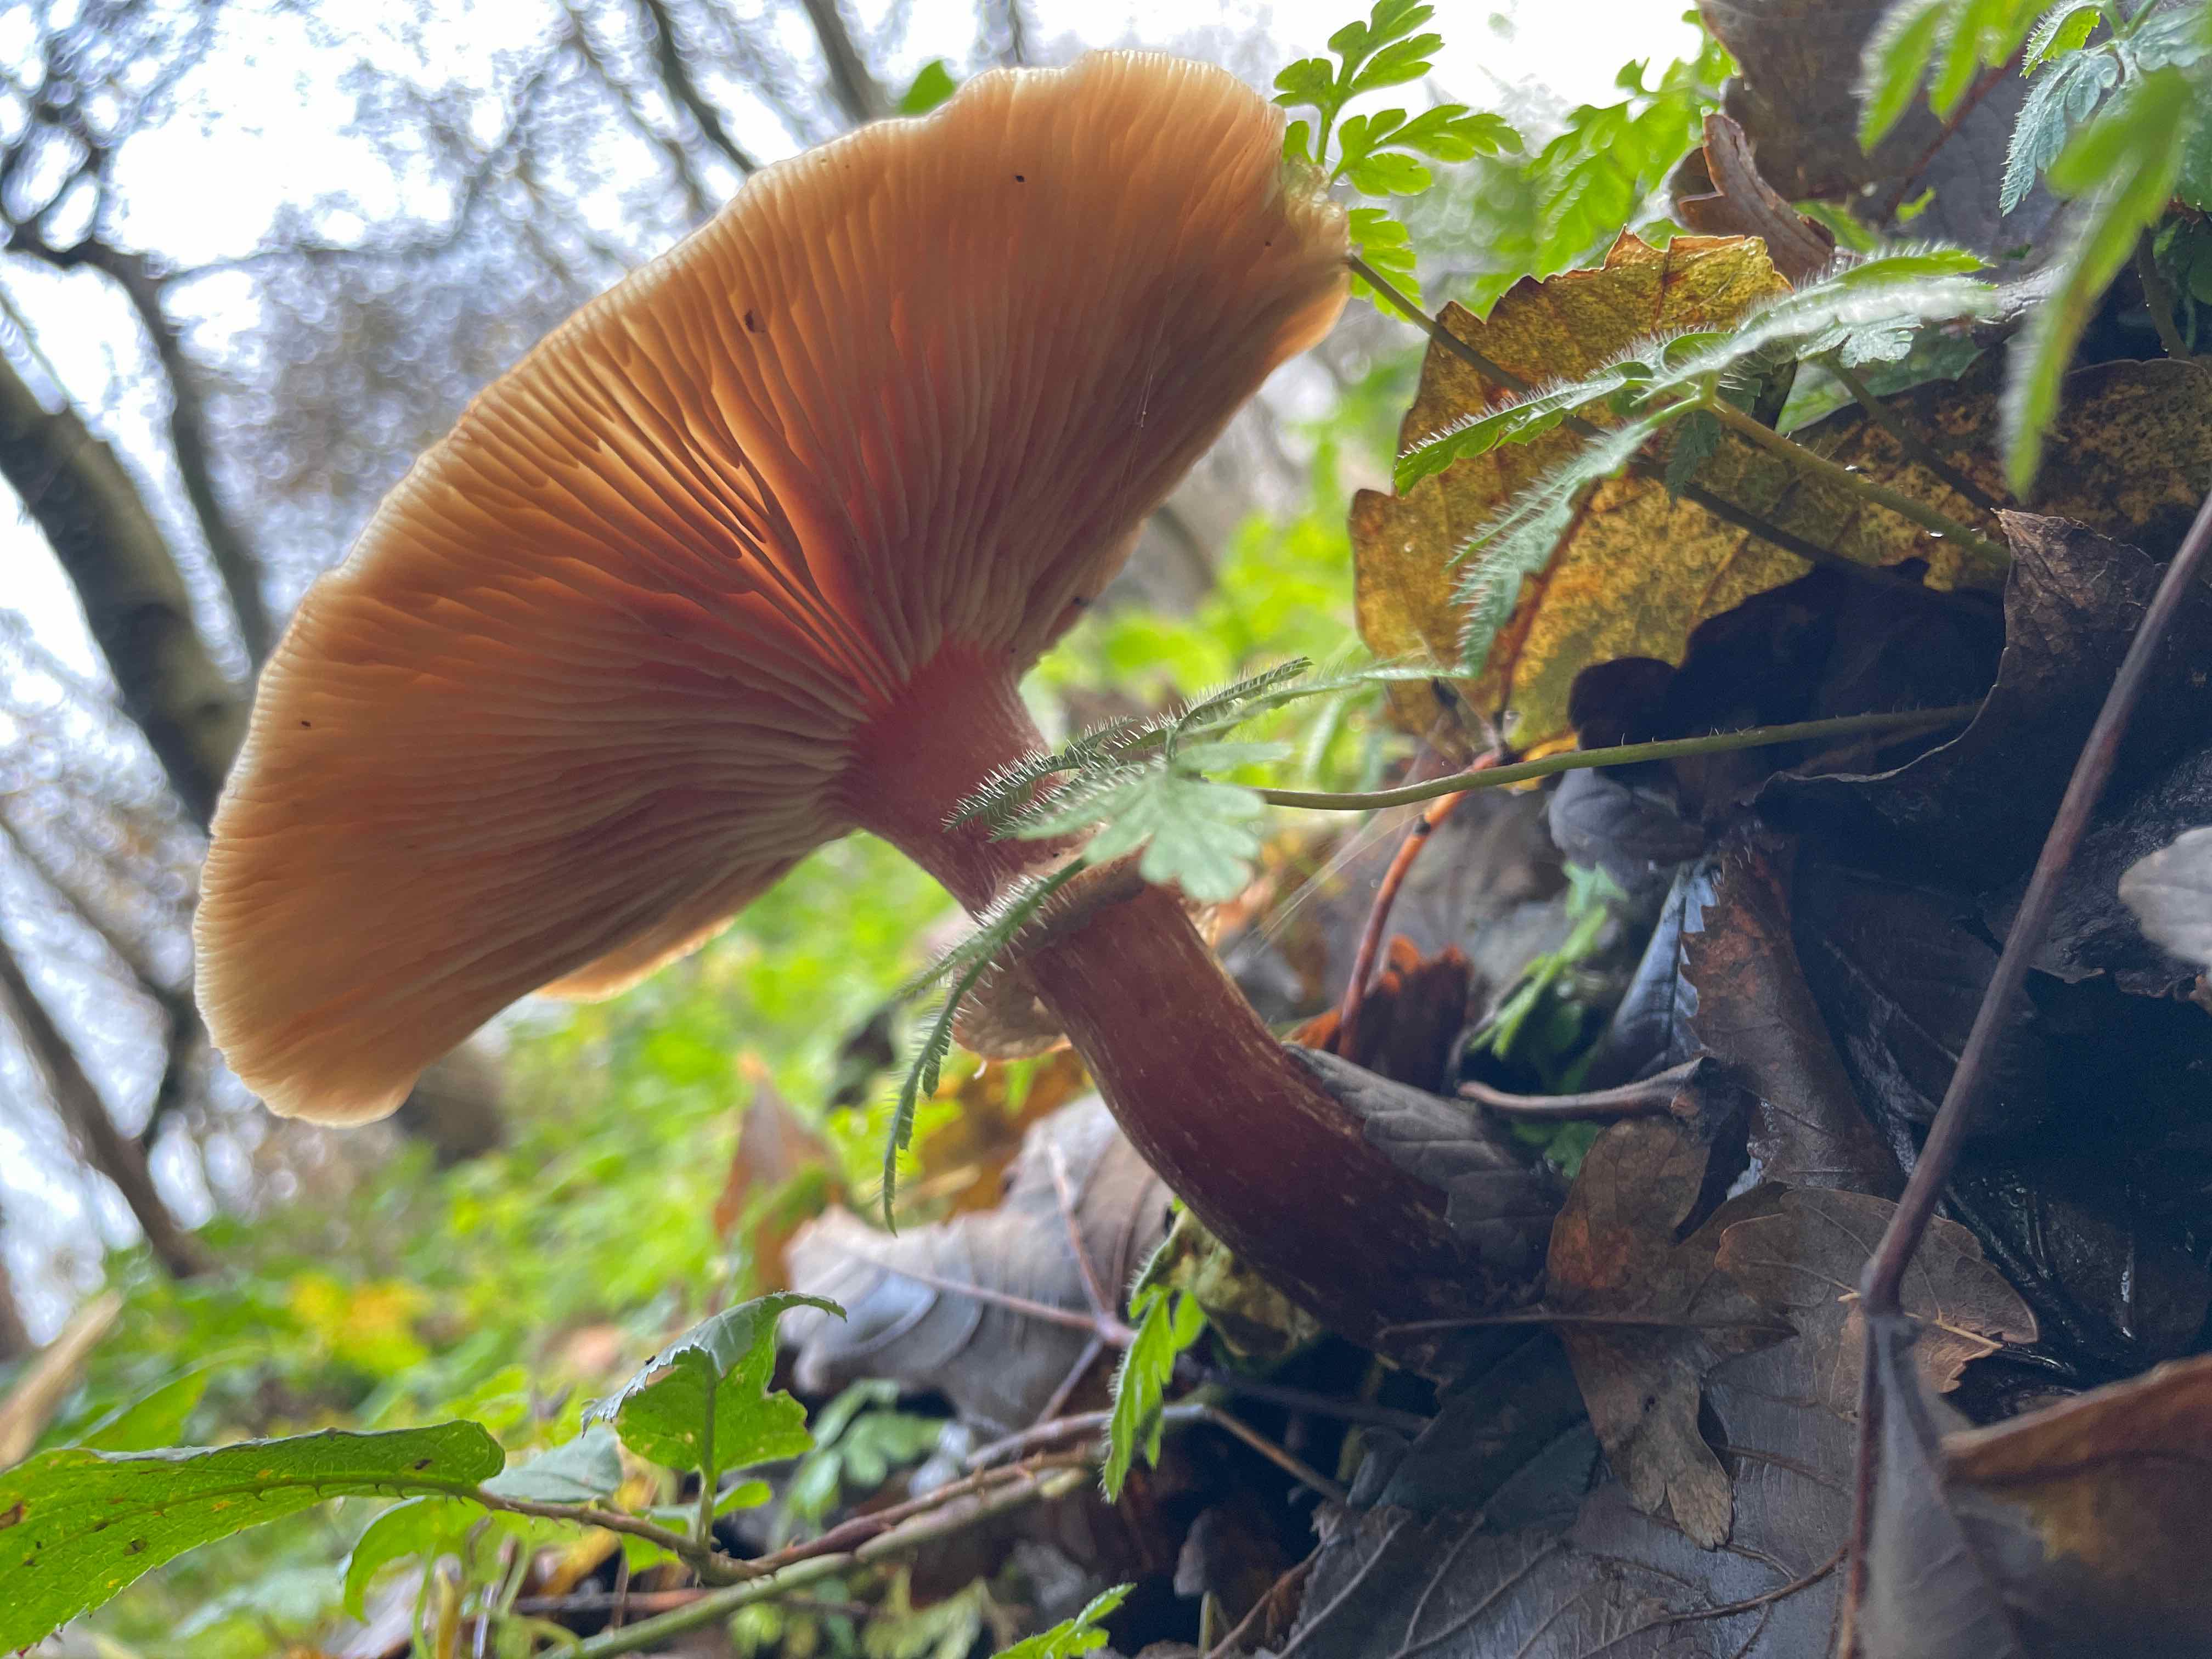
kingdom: Fungi
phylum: Basidiomycota
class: Agaricomycetes
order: Agaricales
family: Physalacriaceae
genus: Armillaria
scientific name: Armillaria
